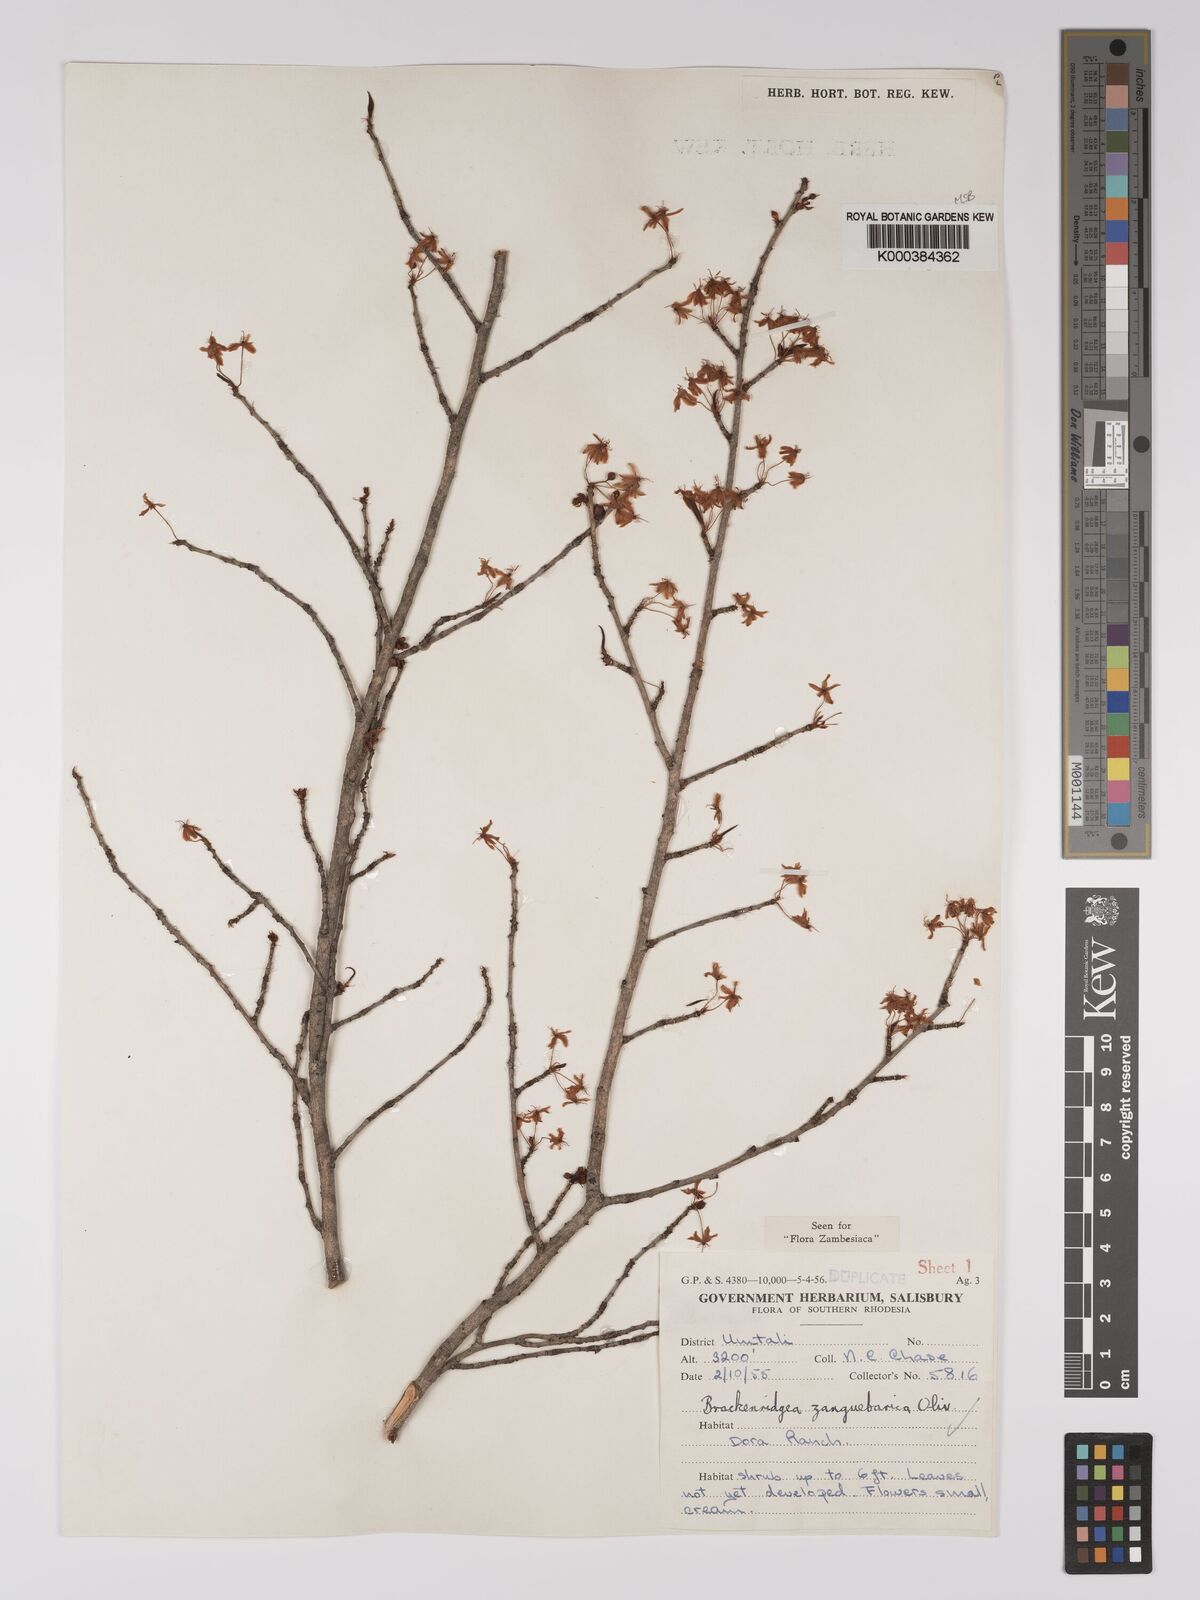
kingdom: Plantae
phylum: Tracheophyta
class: Magnoliopsida
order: Malpighiales
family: Ochnaceae
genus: Brackenridgea
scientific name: Brackenridgea zanguebarica
